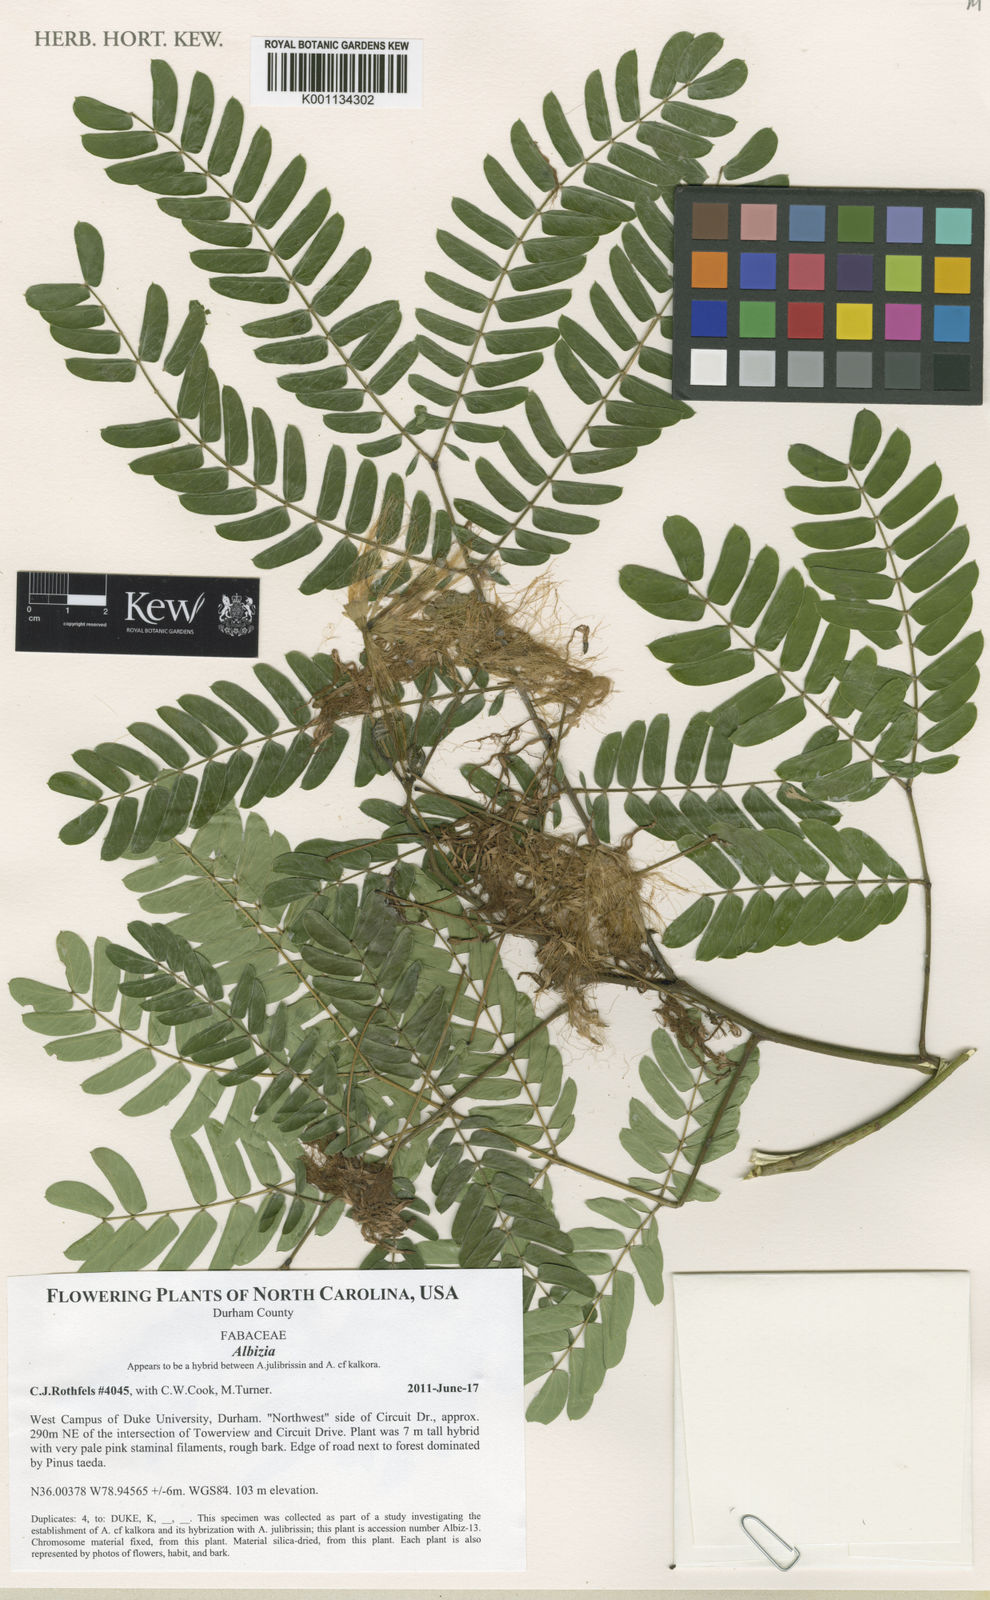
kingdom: Plantae
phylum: Tracheophyta
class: Magnoliopsida
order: Fabales
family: Fabaceae
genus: Albizia
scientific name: Albizia
